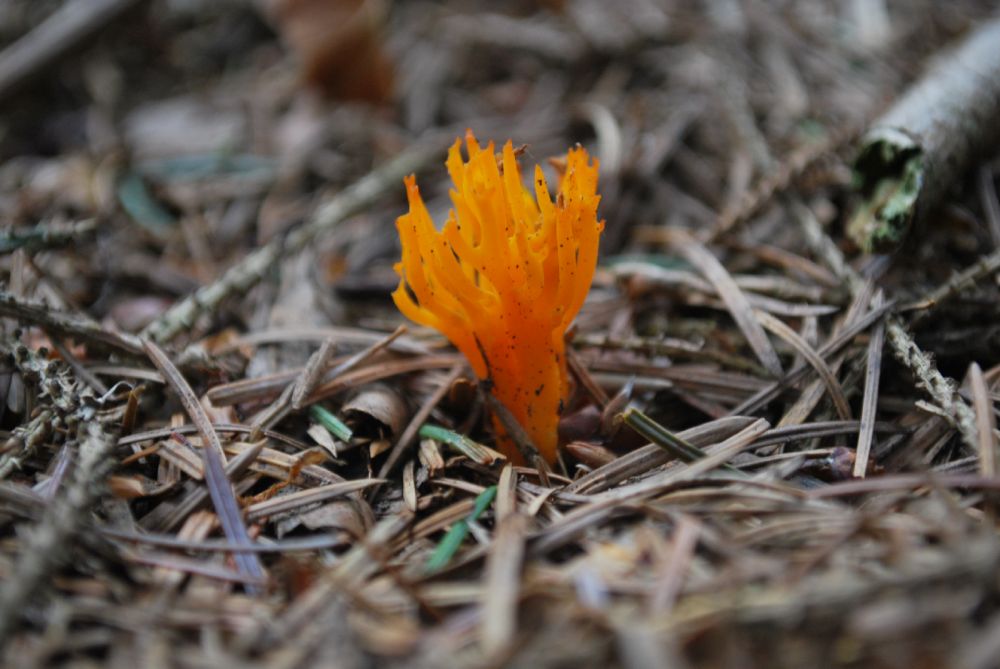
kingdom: Fungi
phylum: Basidiomycota
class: Dacrymycetes
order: Dacrymycetales
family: Dacrymycetaceae
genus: Calocera
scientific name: Calocera viscosa
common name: almindelig guldgaffel
